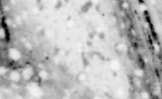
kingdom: Animalia
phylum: Chordata
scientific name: Chordata
